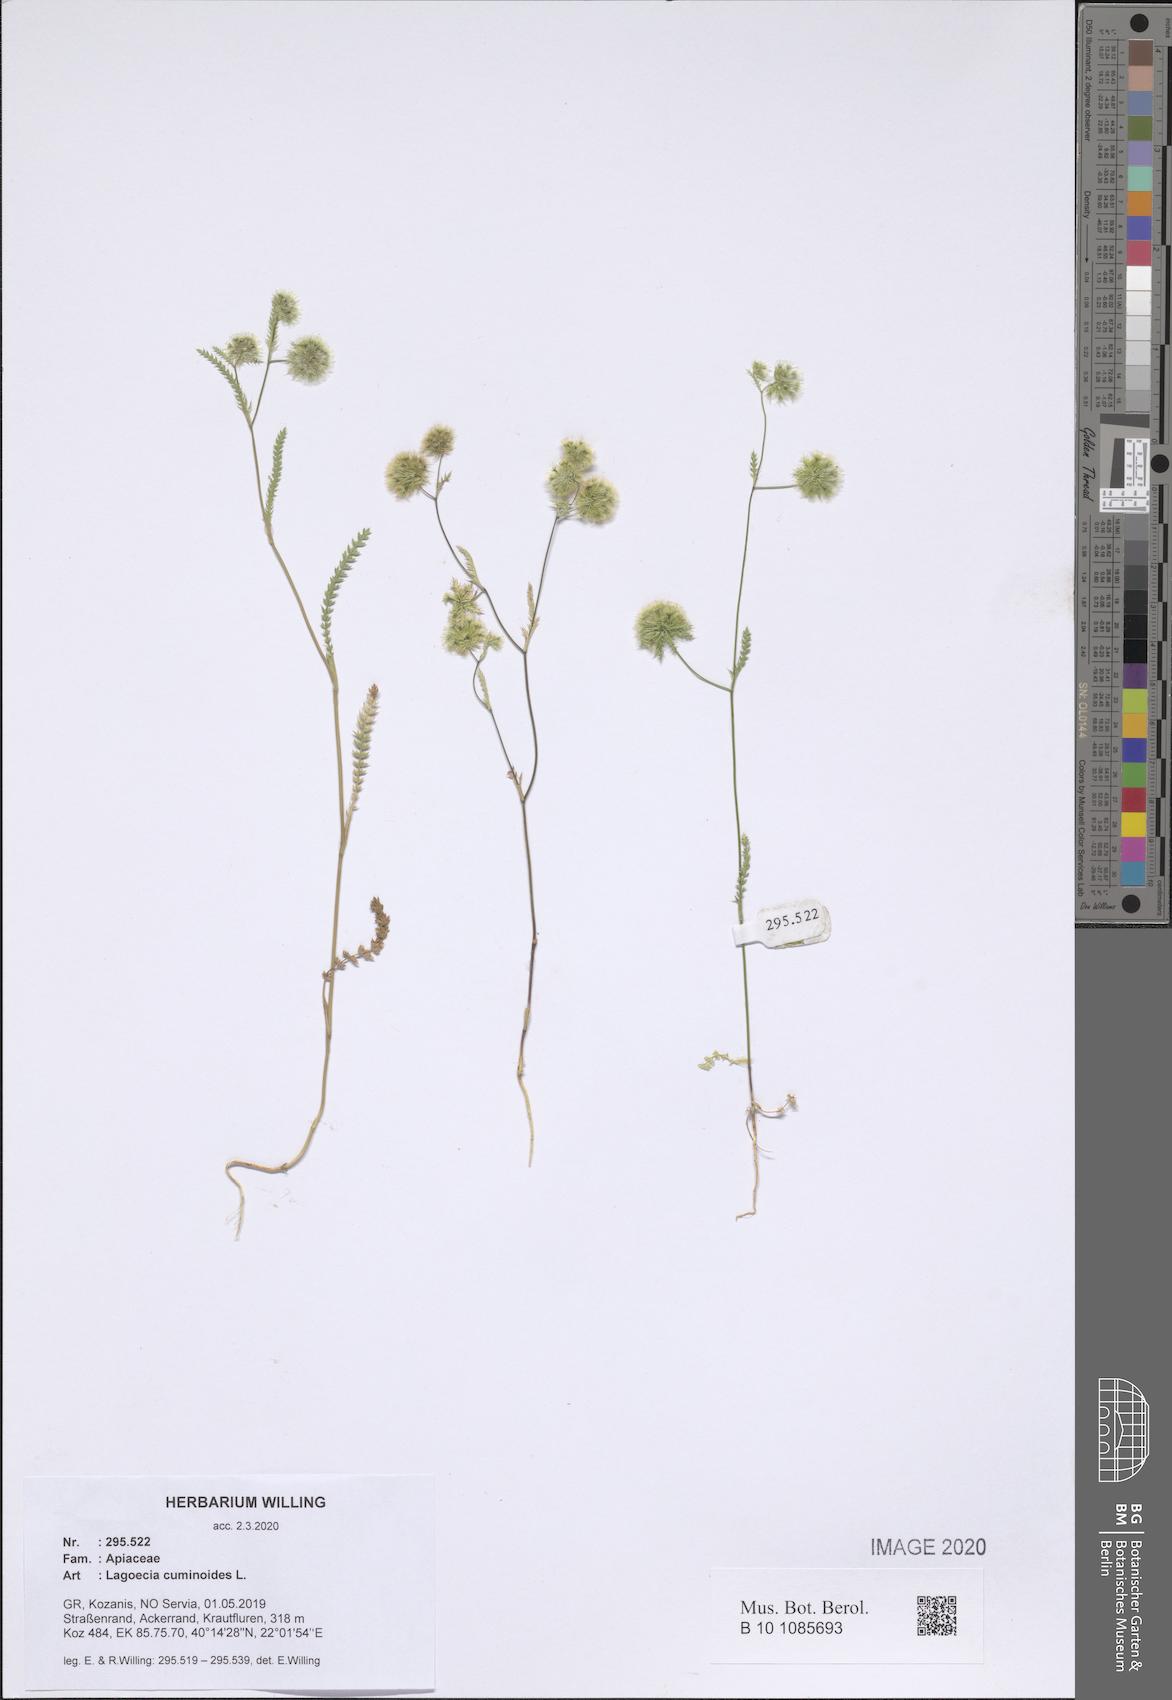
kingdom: Plantae
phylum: Tracheophyta
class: Magnoliopsida
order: Apiales
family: Apiaceae
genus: Lagoecia
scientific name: Lagoecia cuminoides
